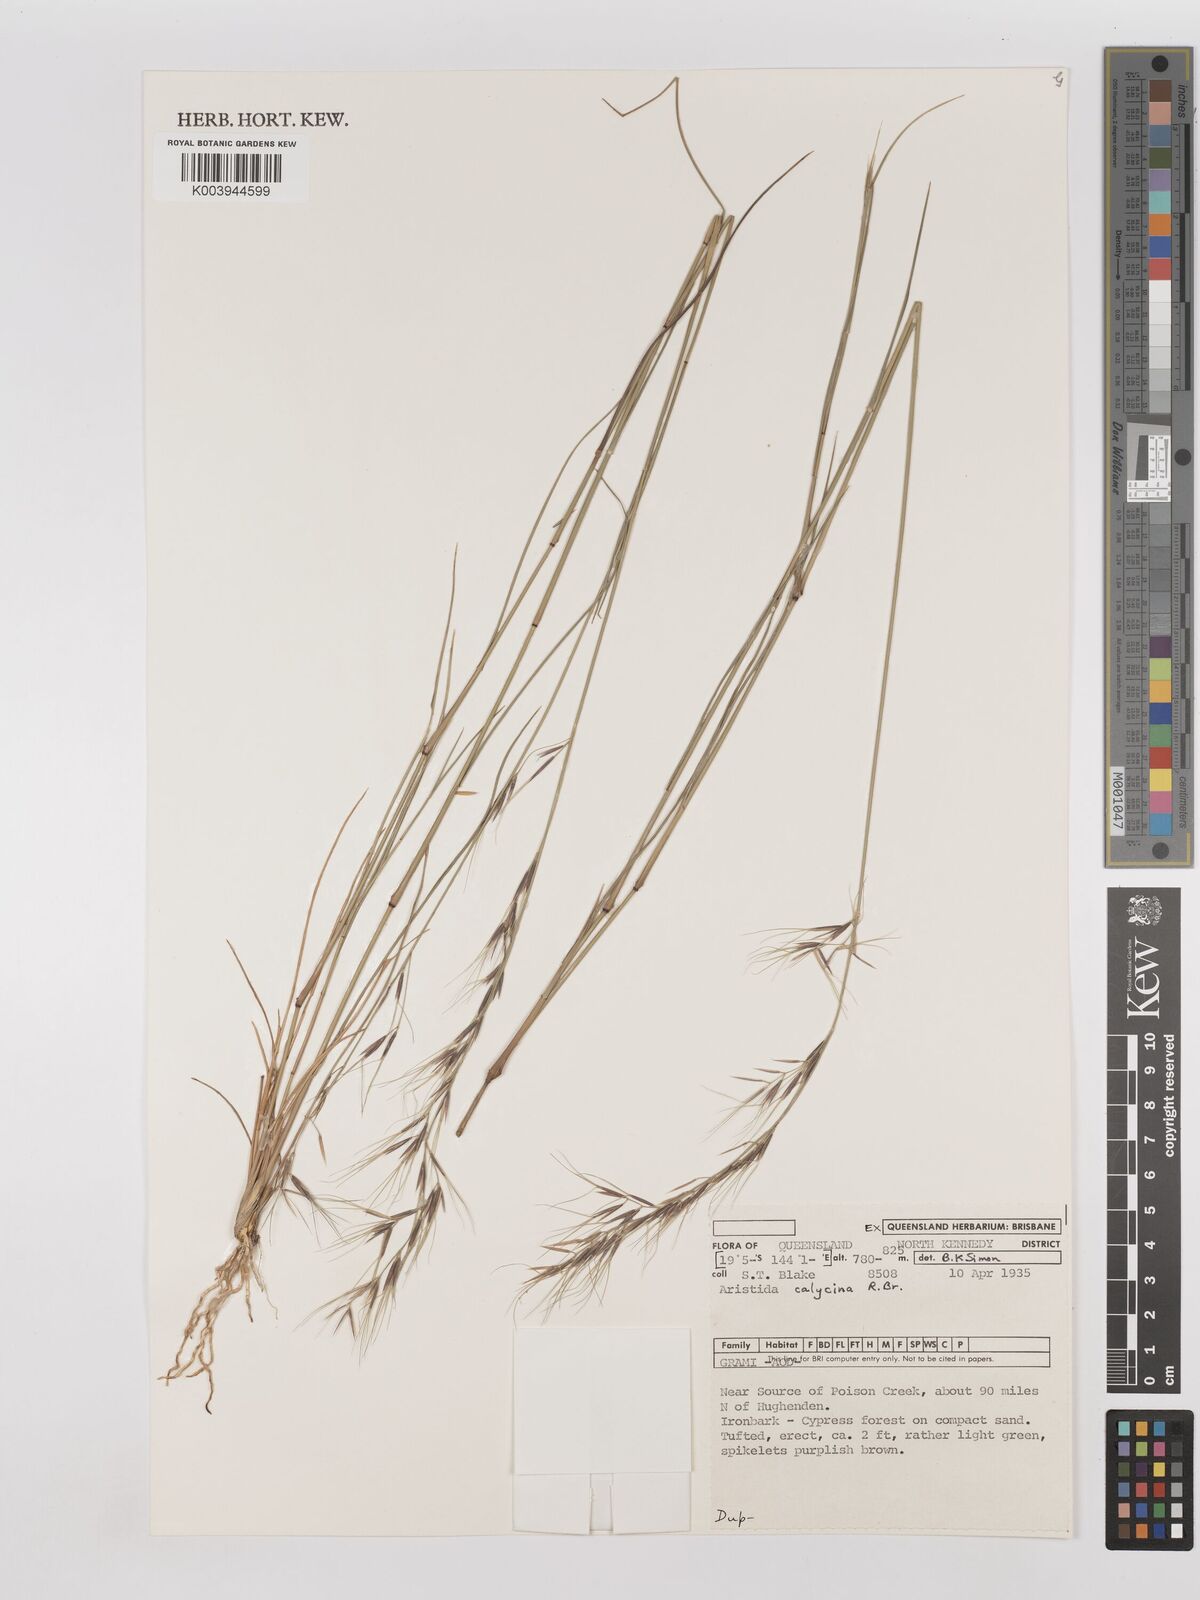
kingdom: Plantae
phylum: Tracheophyta
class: Liliopsida
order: Poales
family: Poaceae
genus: Aristida
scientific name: Aristida calycina
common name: Dark wire grass
